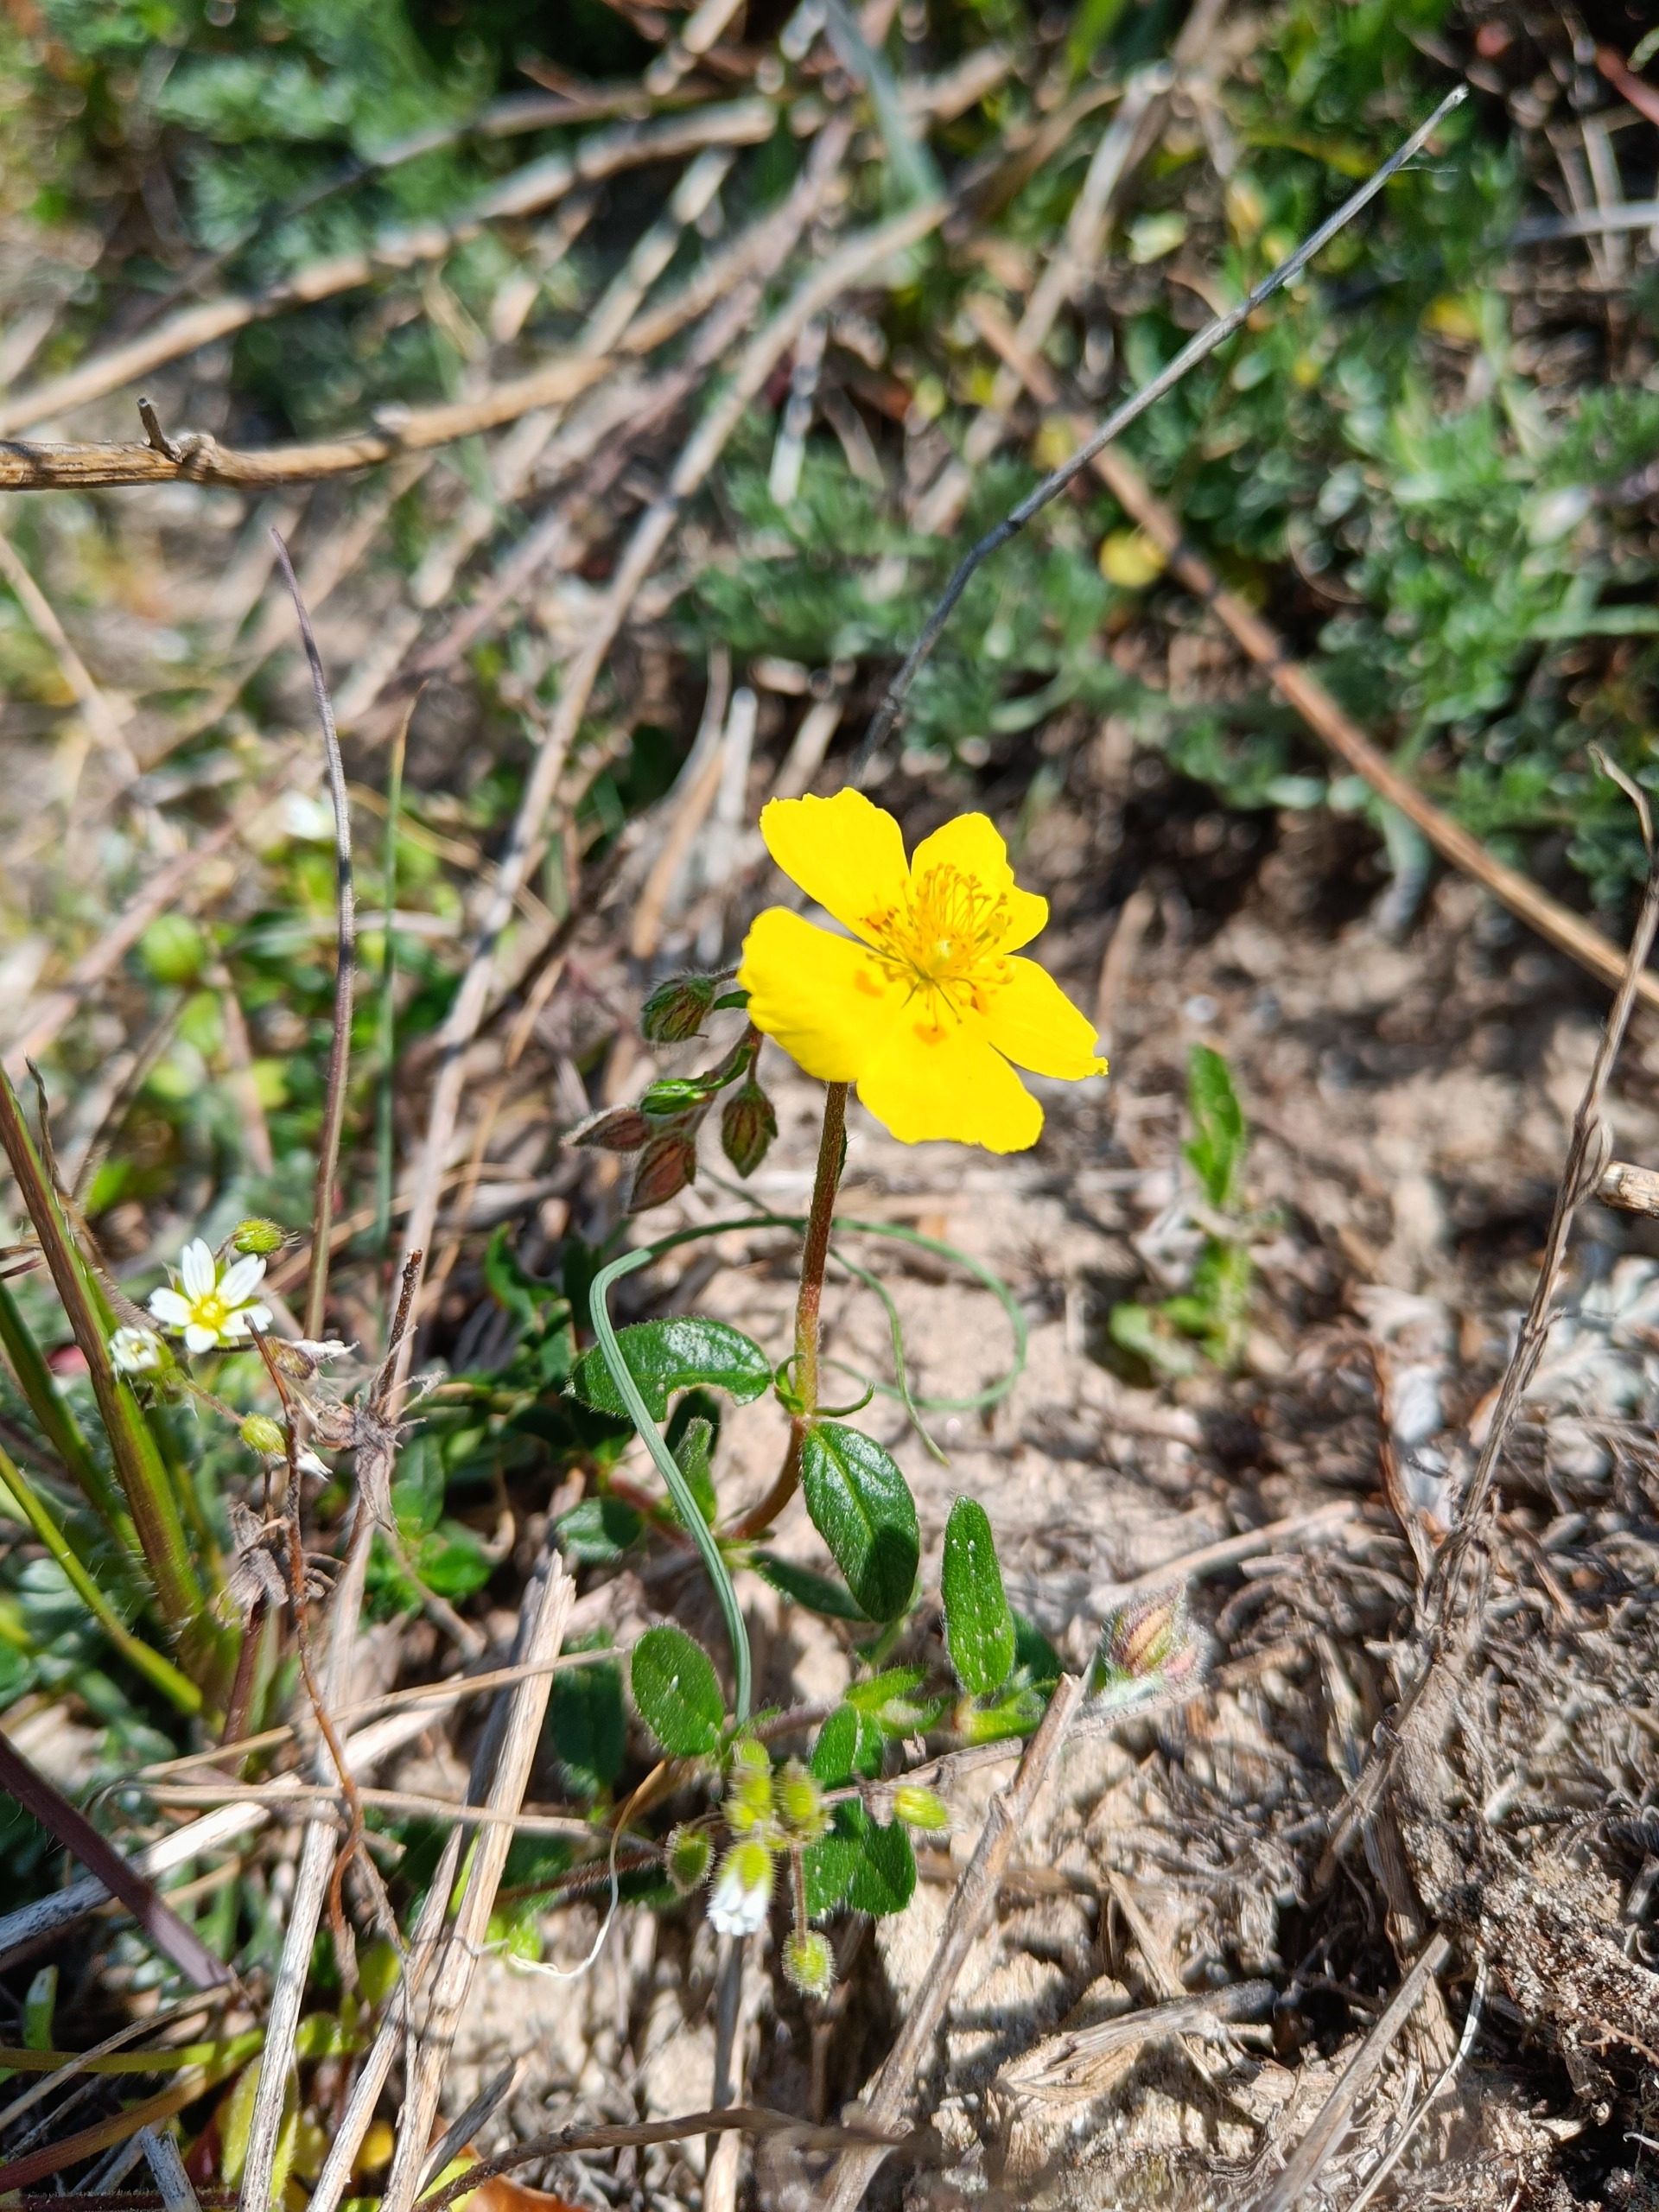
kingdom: Plantae
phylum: Tracheophyta
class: Magnoliopsida
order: Malvales
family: Cistaceae
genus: Helianthemum
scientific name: Helianthemum nummularium
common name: Soløje
